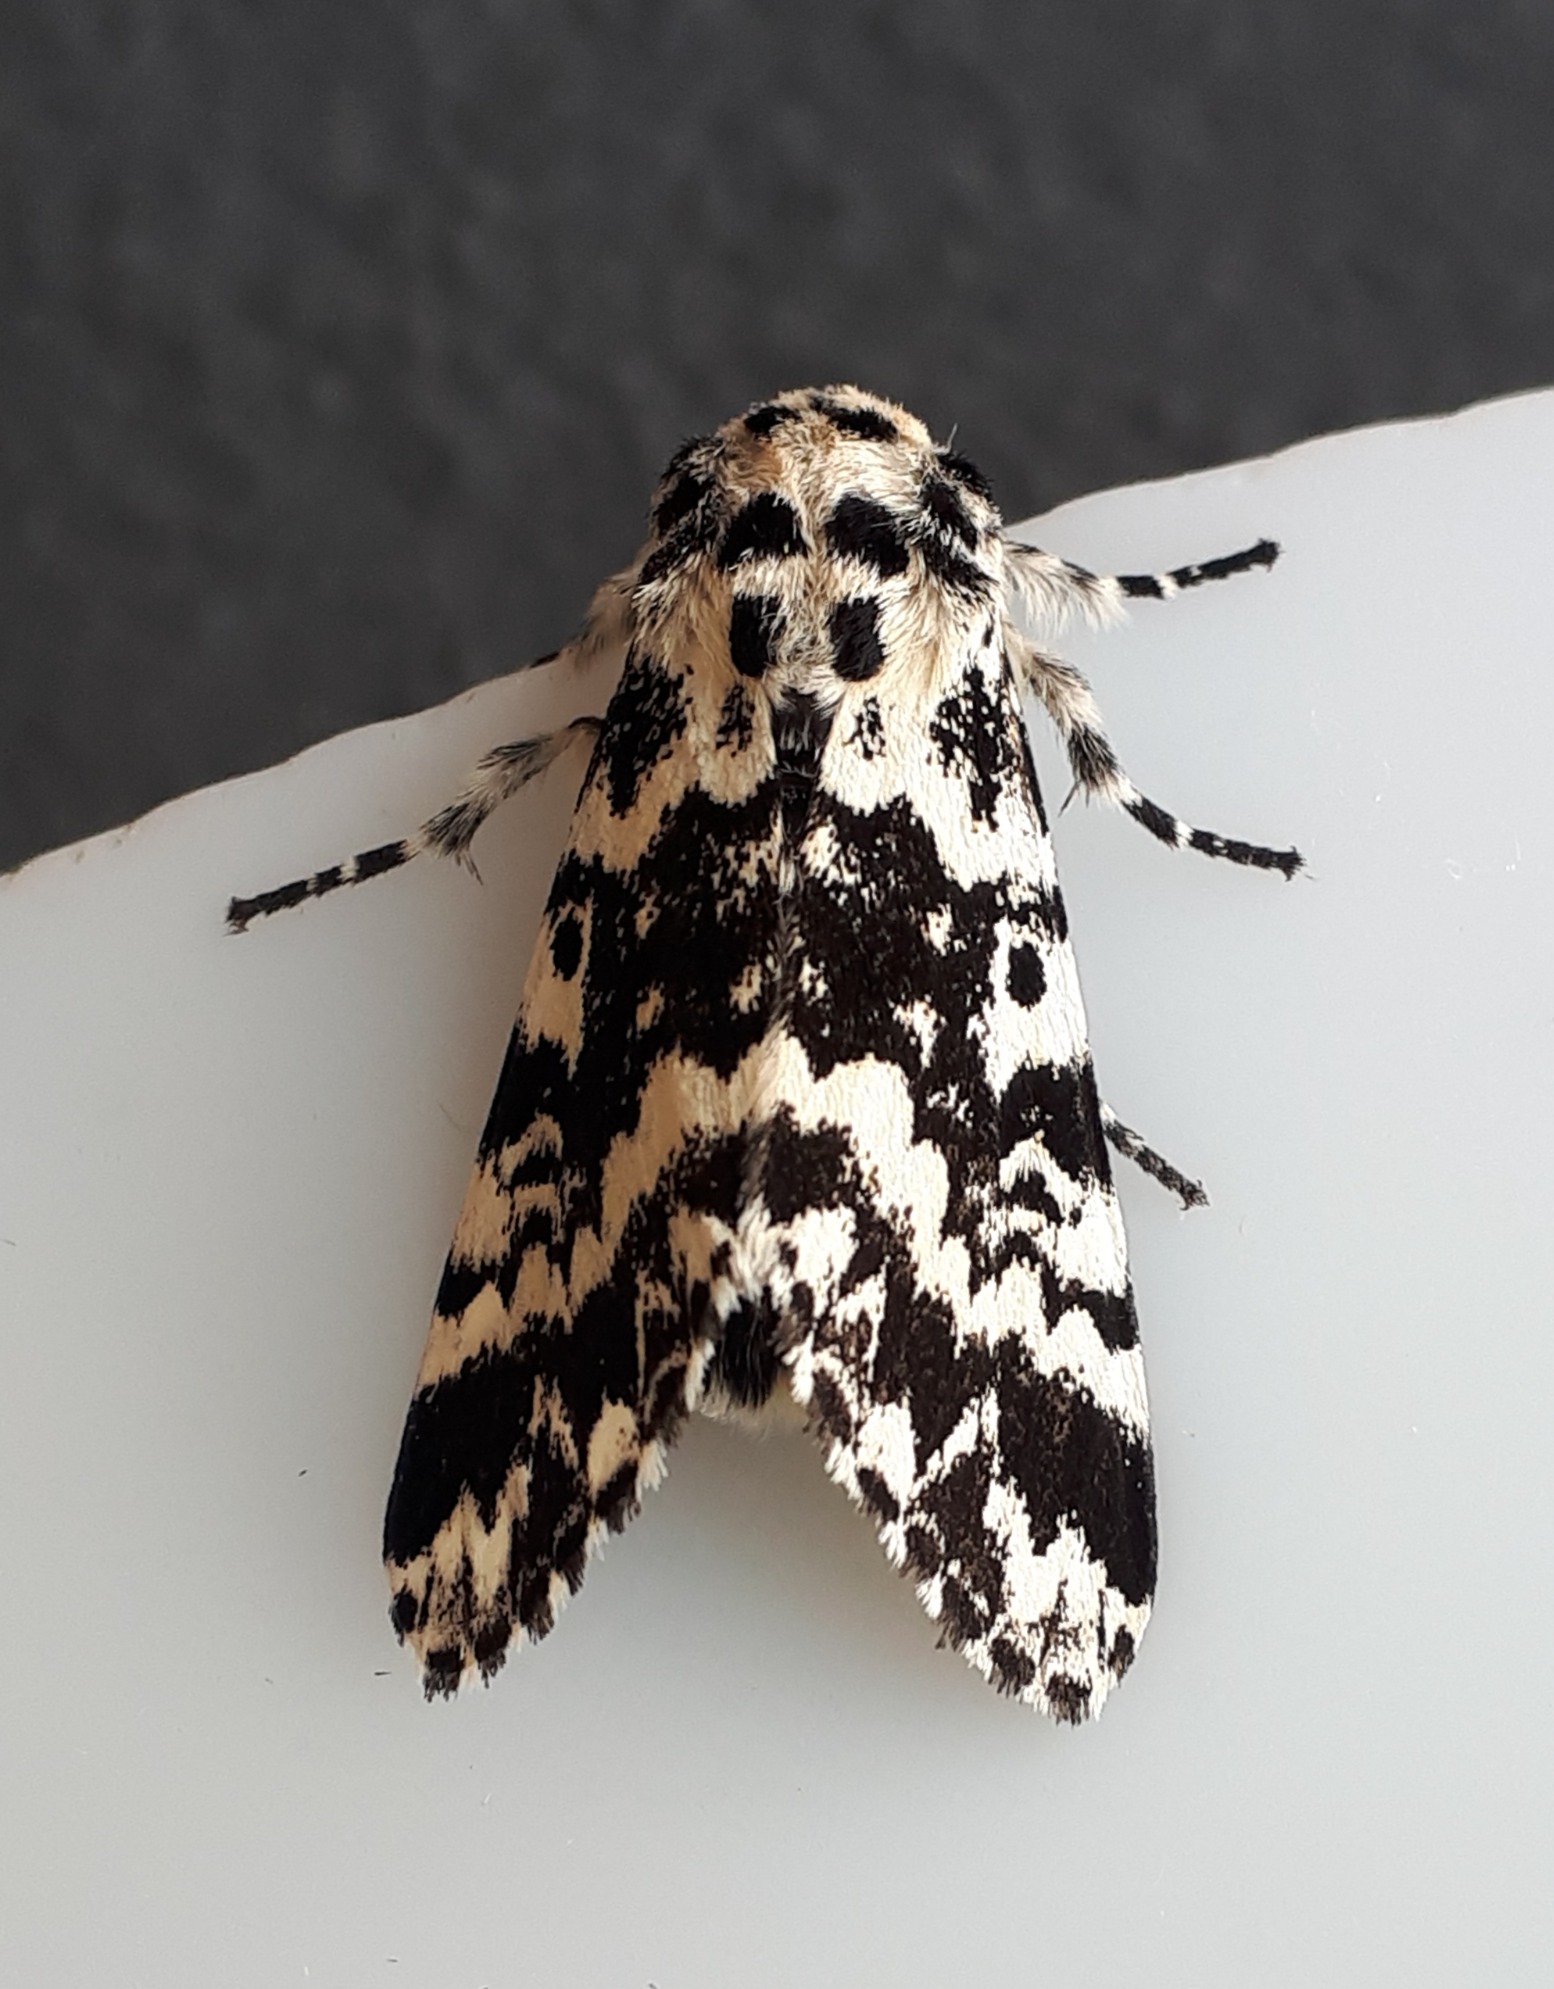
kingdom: Animalia
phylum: Arthropoda
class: Insecta
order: Lepidoptera
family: Noctuidae
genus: Panthea
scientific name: Panthea coenobita
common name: Nonneugle
